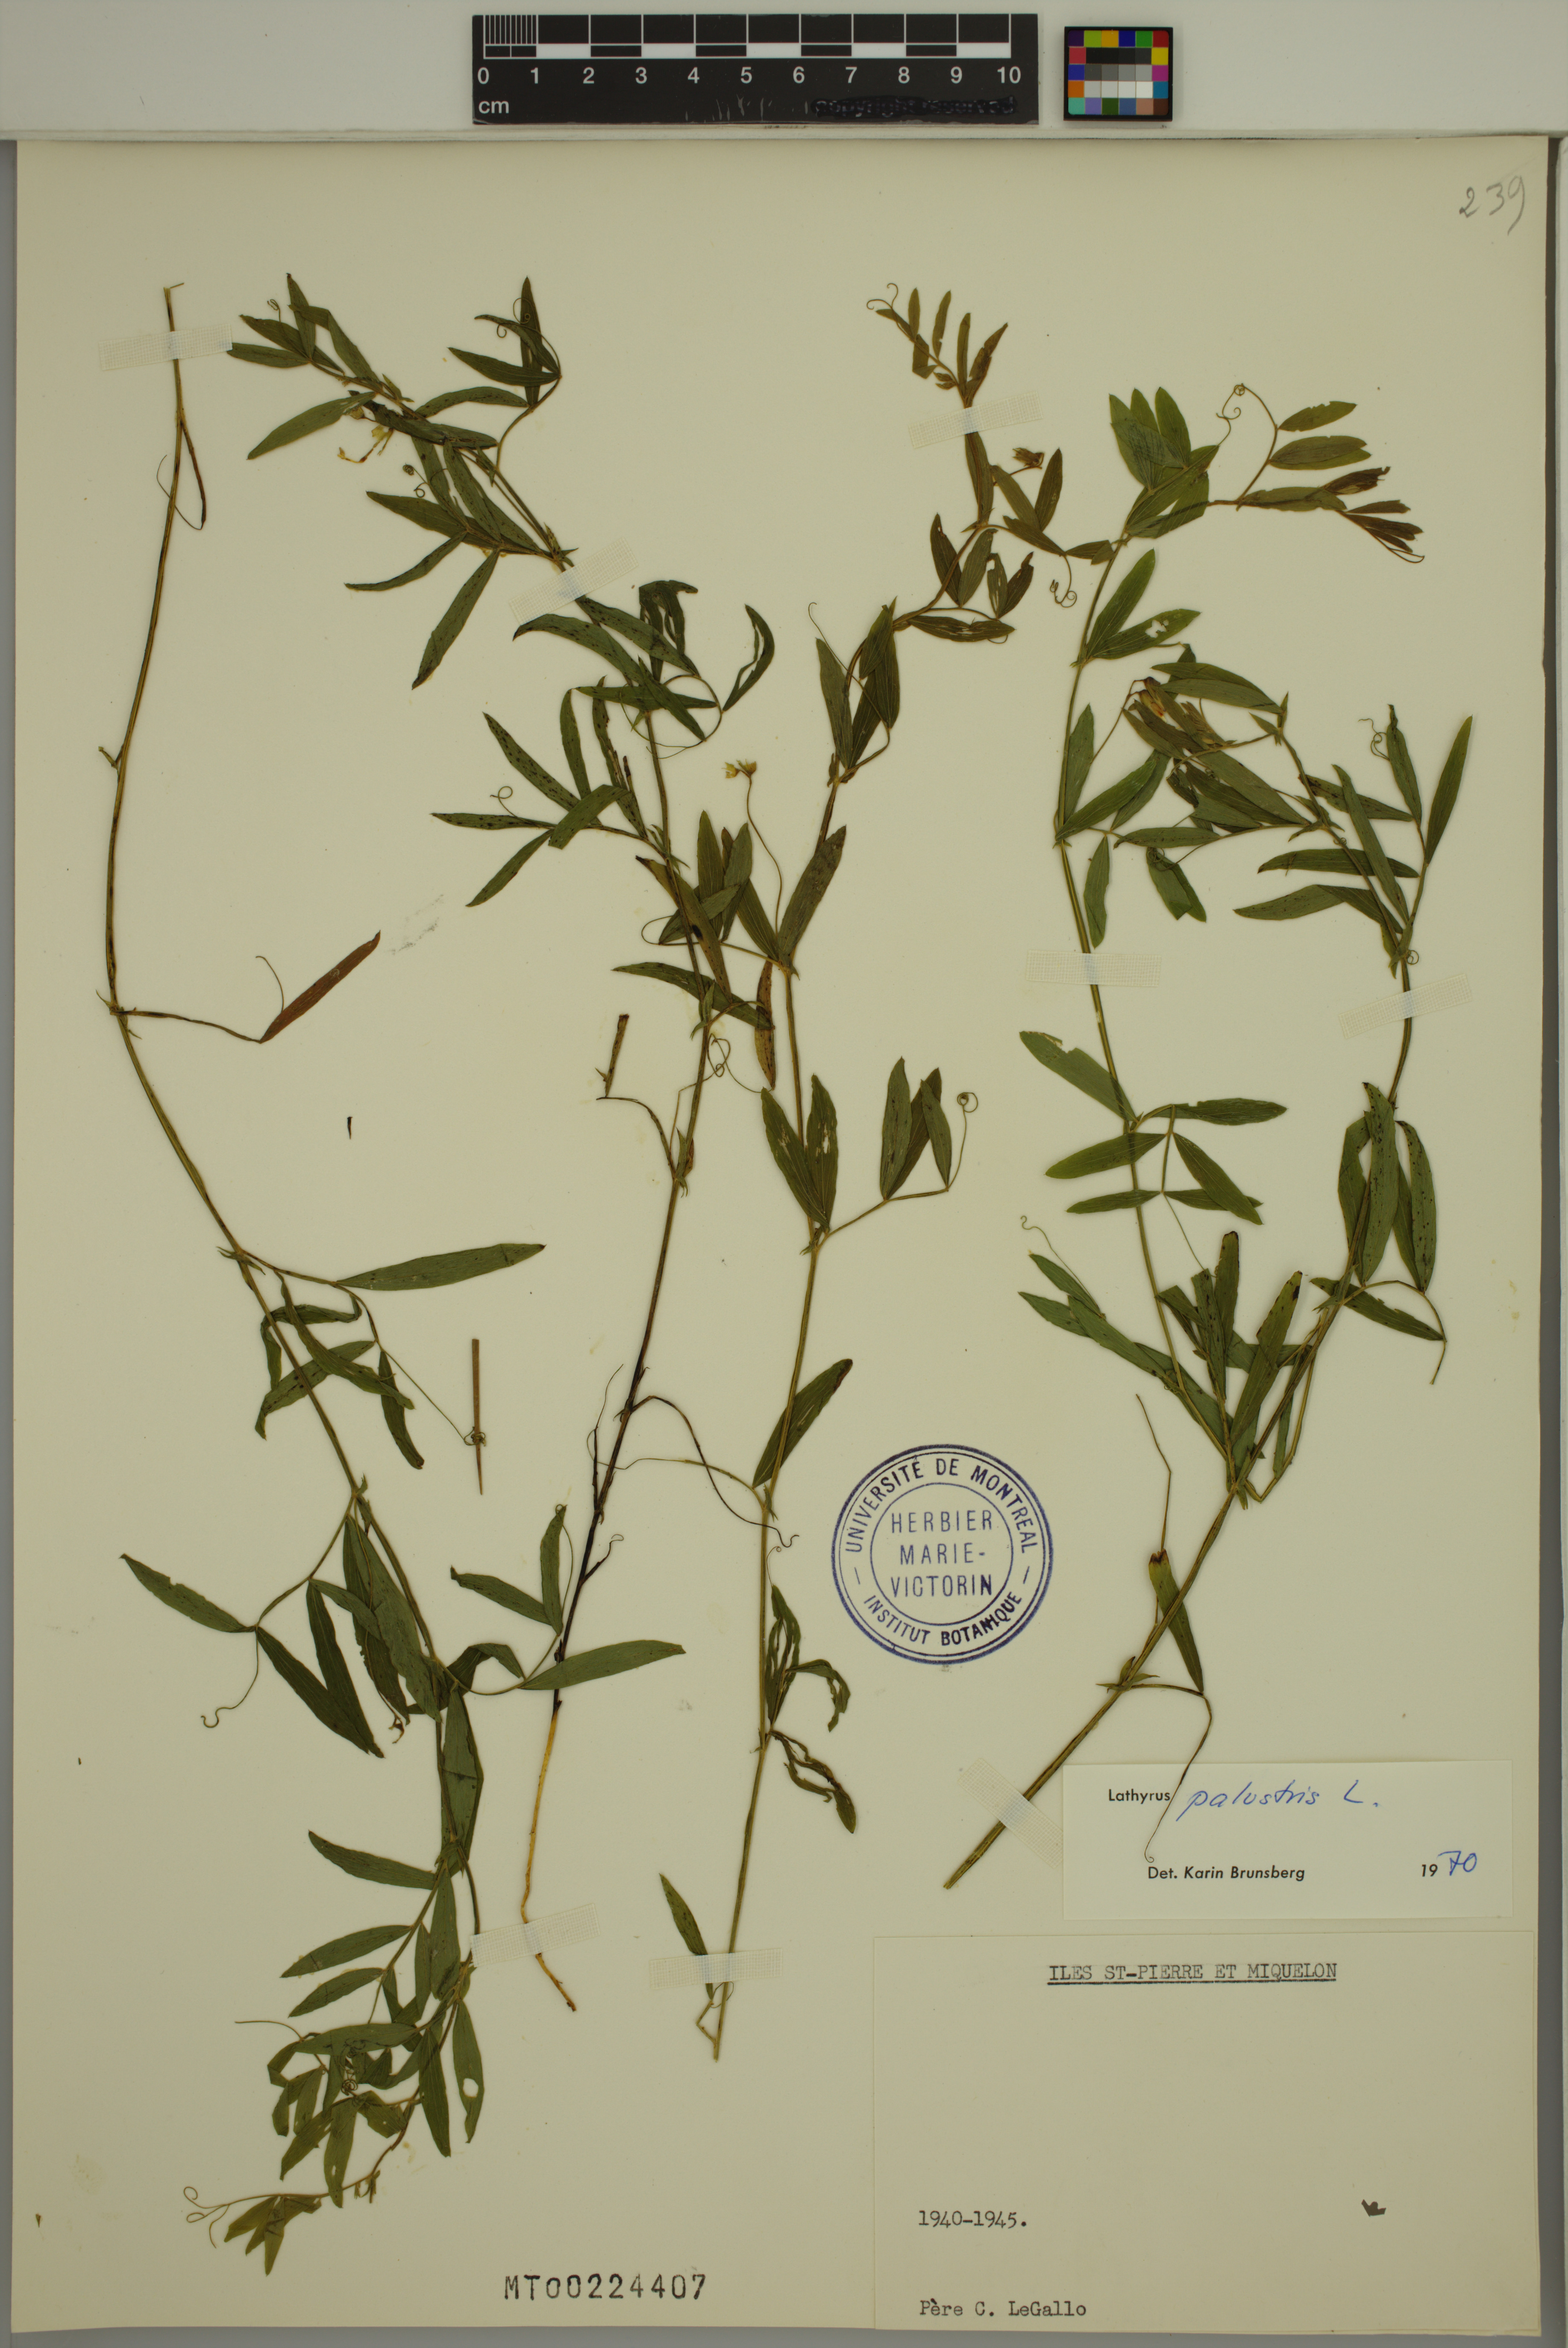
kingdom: Plantae
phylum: Tracheophyta
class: Magnoliopsida
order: Fabales
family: Fabaceae
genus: Lathyrus
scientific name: Lathyrus palustris
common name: Marsh pea
